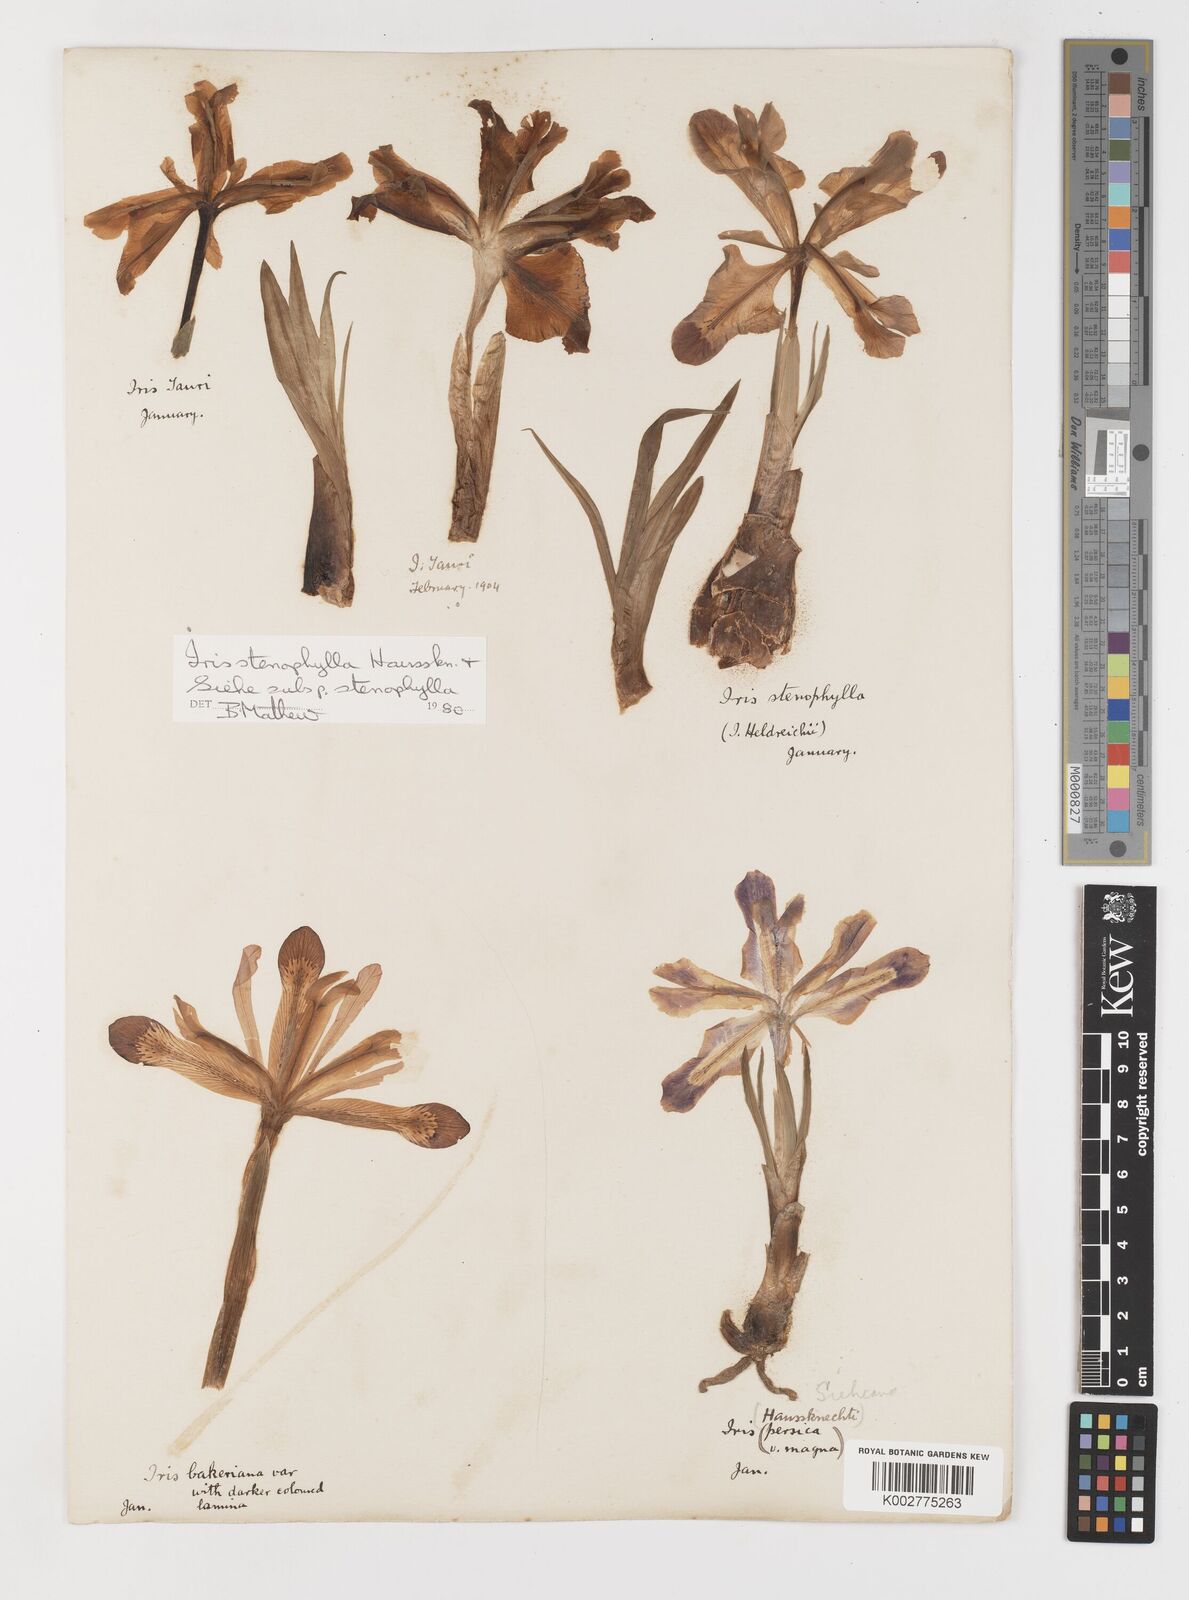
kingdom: Plantae
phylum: Tracheophyta
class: Liliopsida
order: Asparagales
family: Iridaceae
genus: Iris
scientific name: Iris stenophylla
